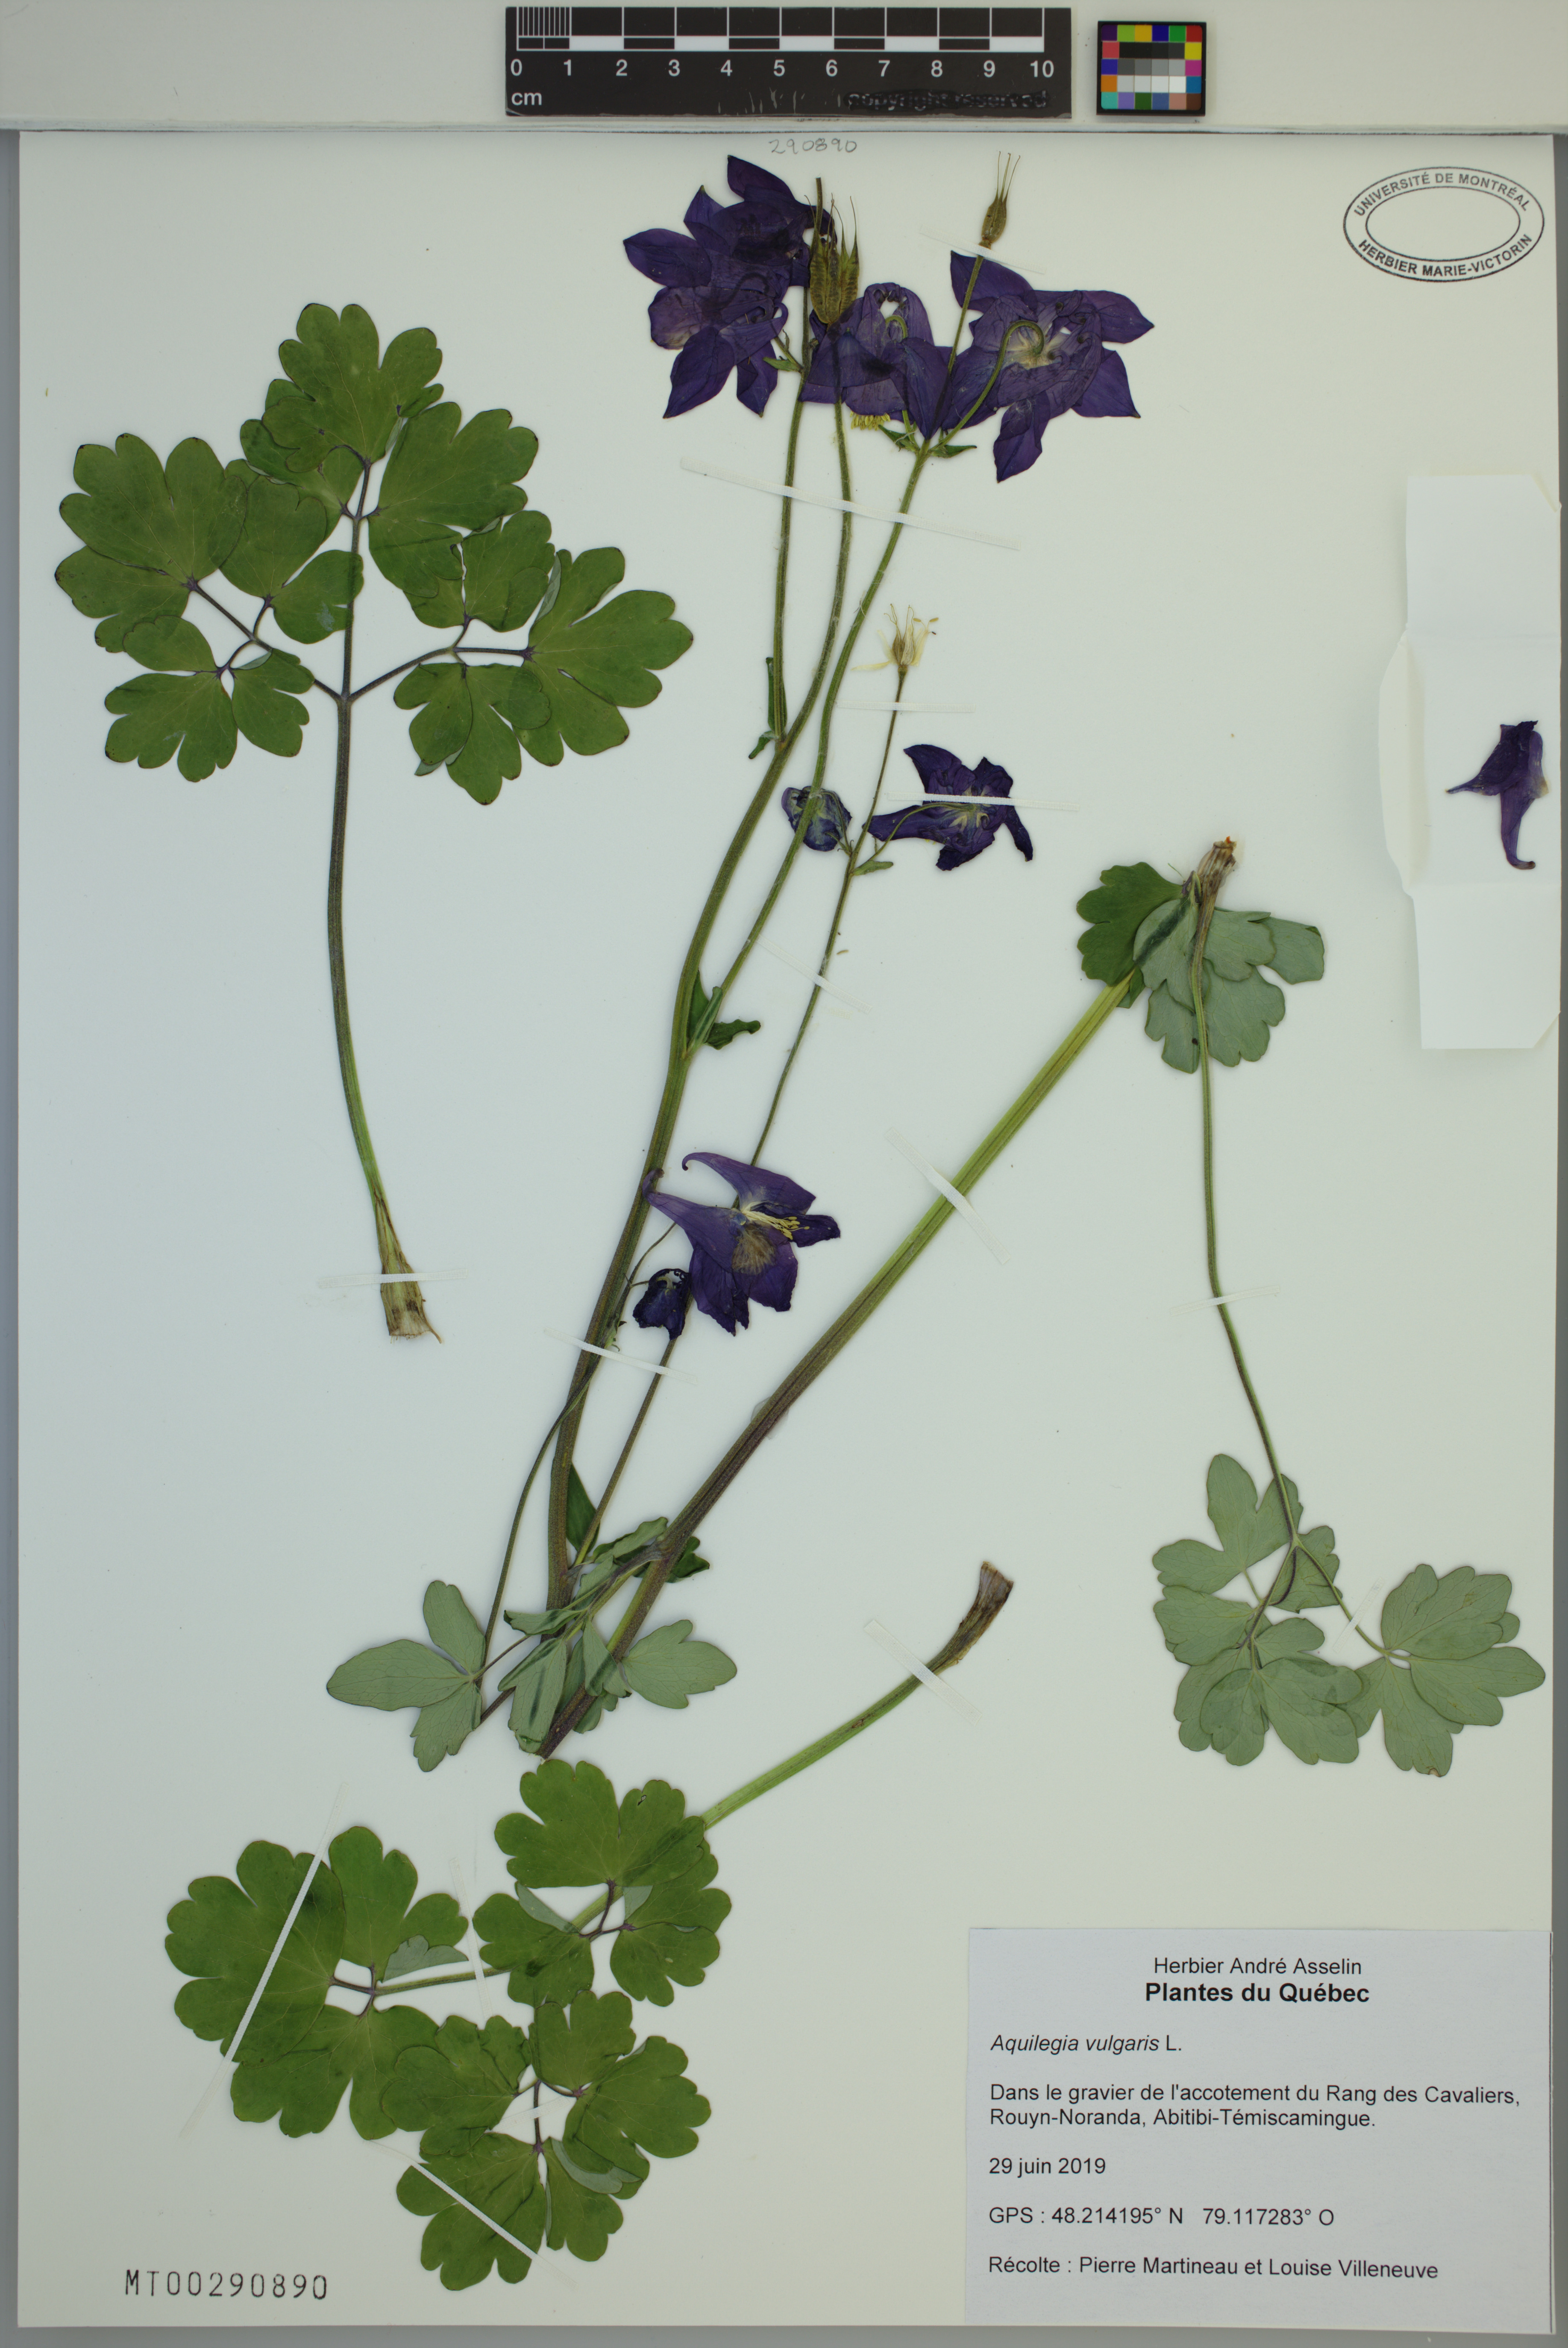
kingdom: Plantae
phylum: Tracheophyta
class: Magnoliopsida
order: Ranunculales
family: Ranunculaceae
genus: Aquilegia
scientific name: Aquilegia vulgaris
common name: Columbine
